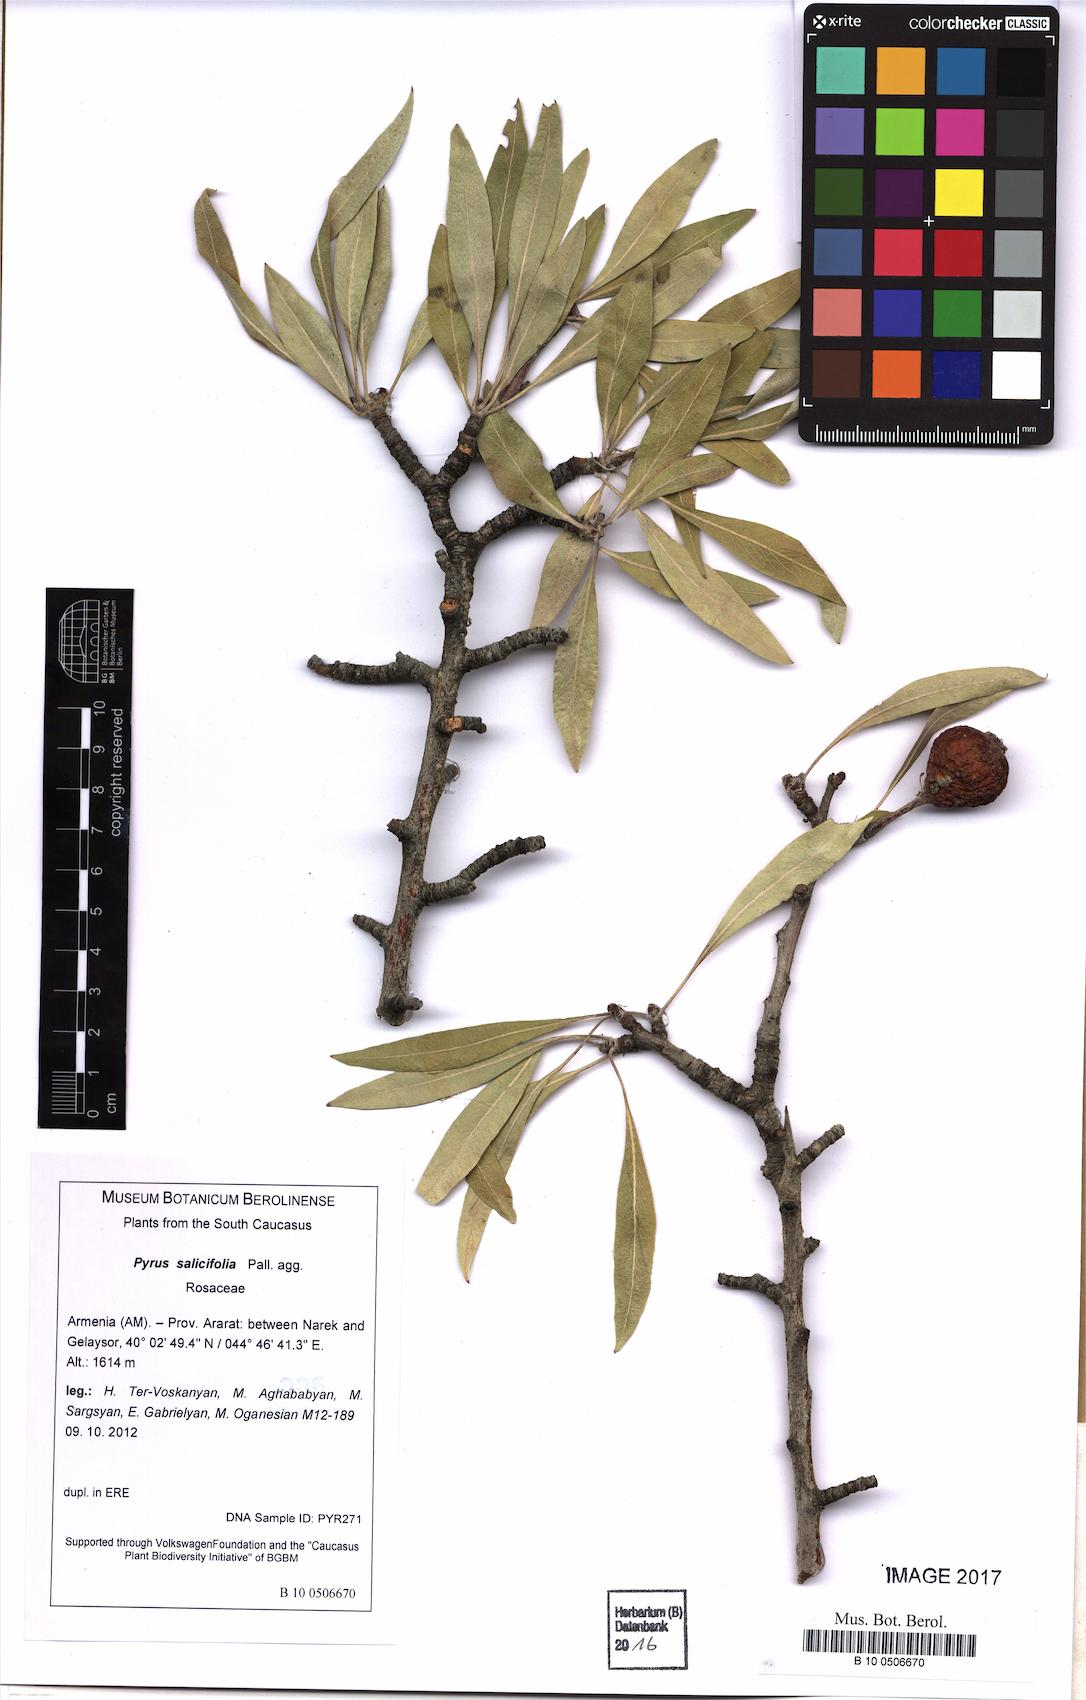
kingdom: Plantae
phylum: Tracheophyta
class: Magnoliopsida
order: Rosales
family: Rosaceae
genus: Pyrus
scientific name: Pyrus salicifolia
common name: Willow-leaved pear
